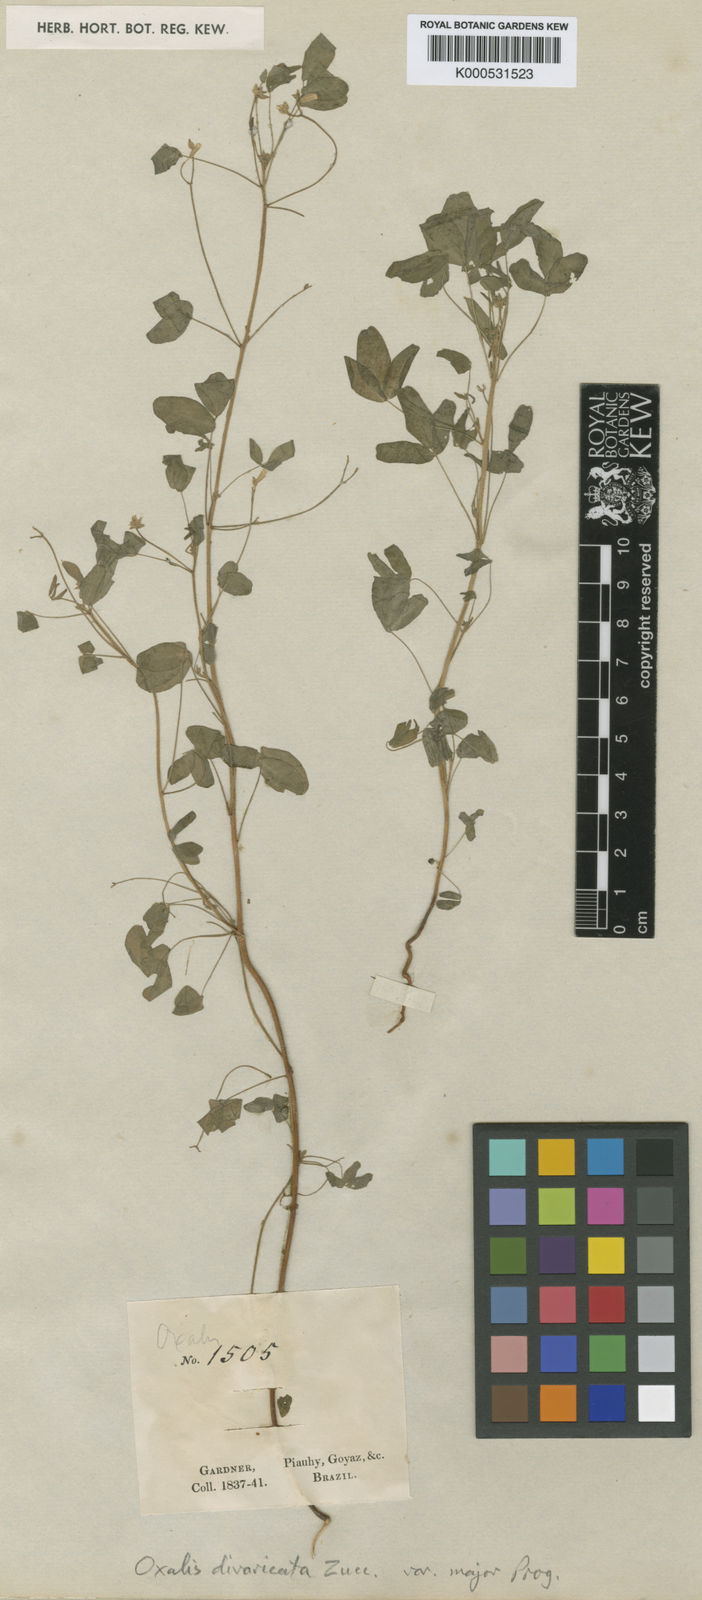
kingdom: Plantae
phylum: Tracheophyta
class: Magnoliopsida
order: Oxalidales
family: Oxalidaceae
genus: Oxalis
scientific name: Oxalis divaricata
